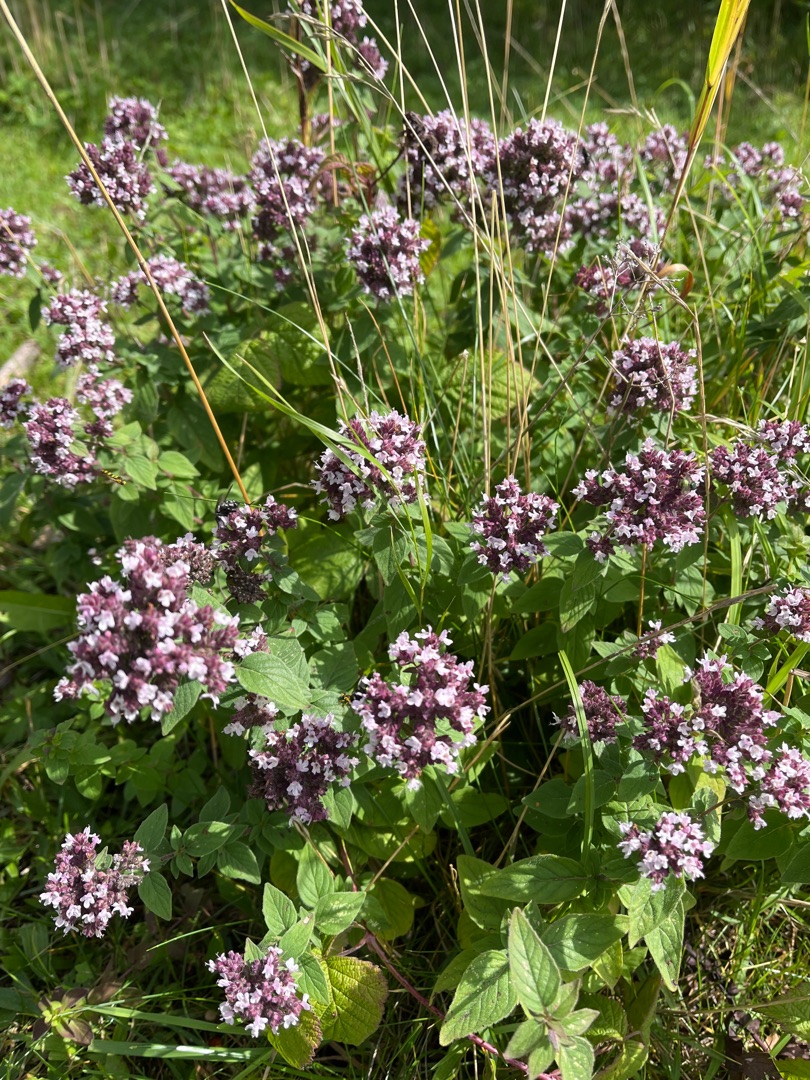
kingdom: Plantae
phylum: Tracheophyta
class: Magnoliopsida
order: Lamiales
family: Lamiaceae
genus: Origanum
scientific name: Origanum vulgare
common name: Merian
